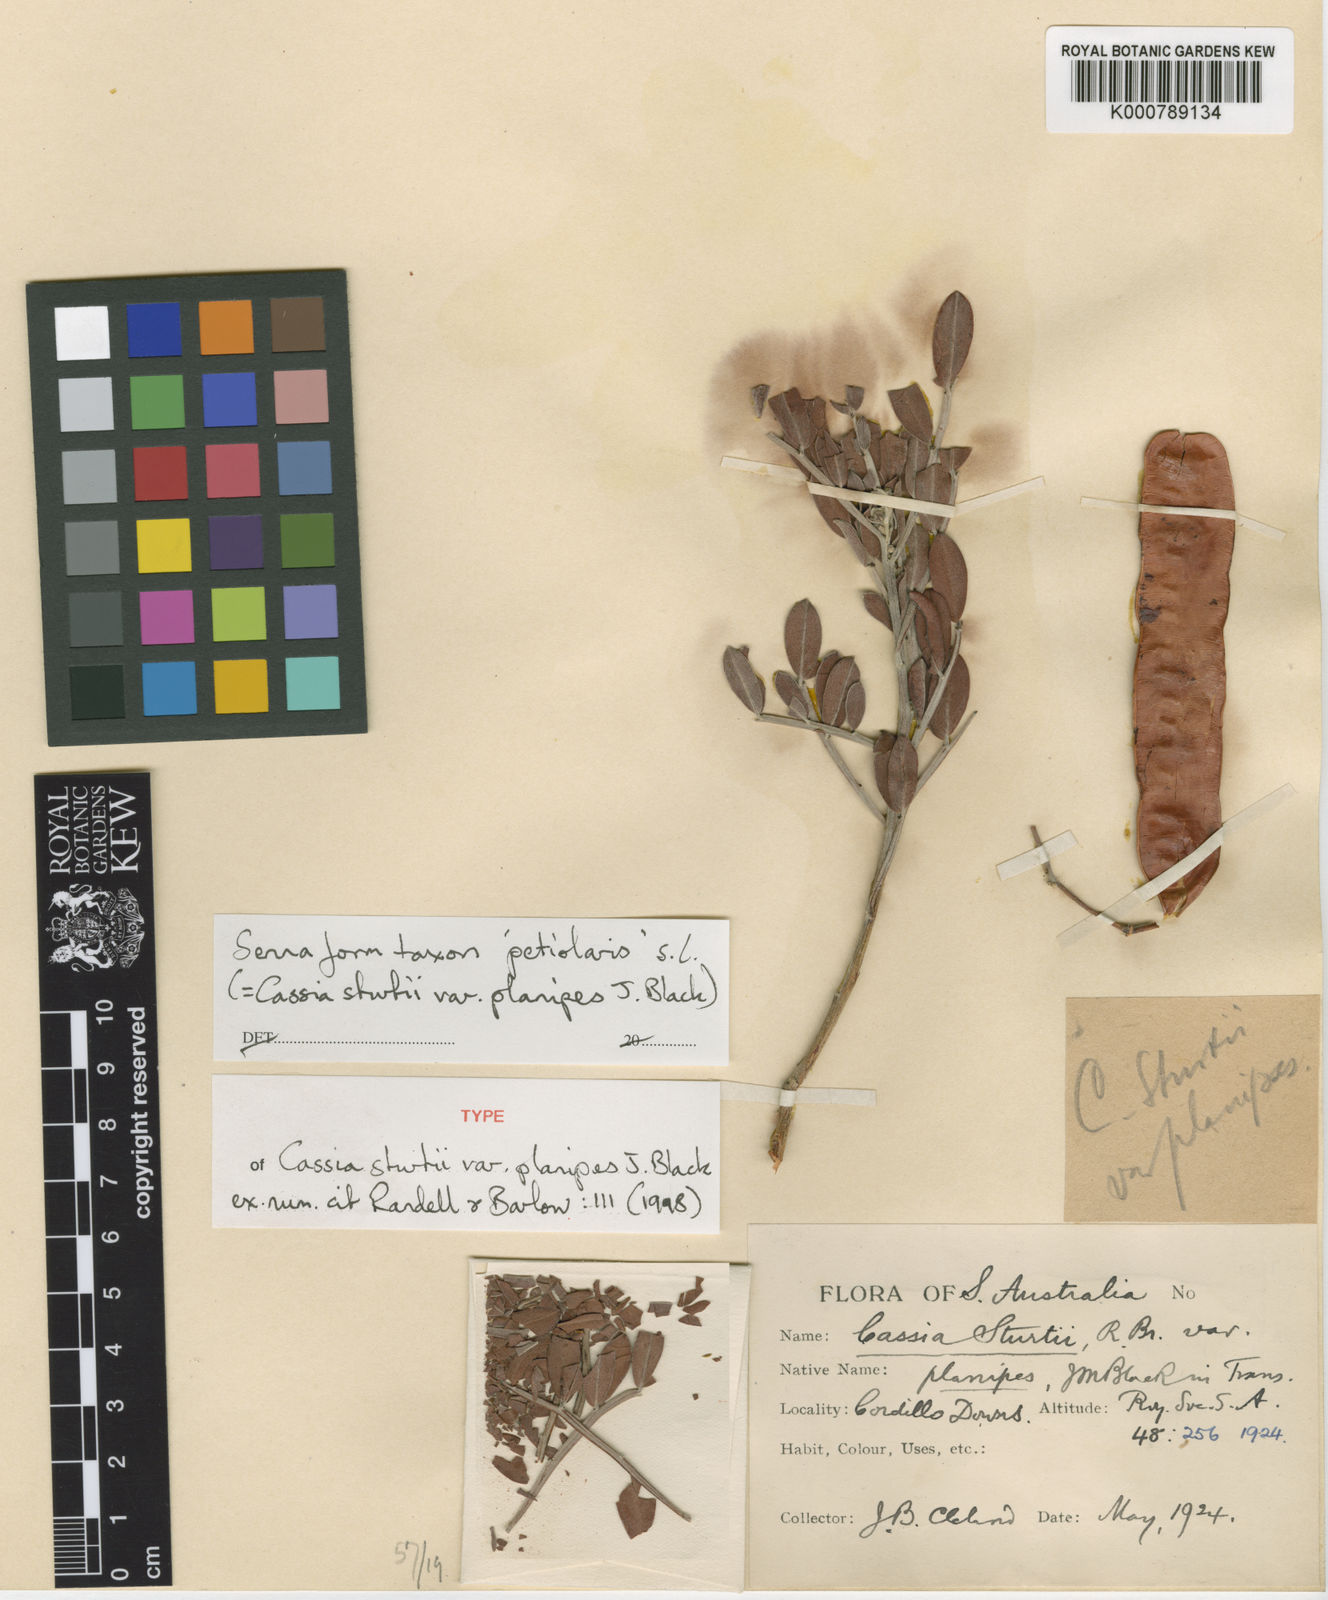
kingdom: Plantae
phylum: Tracheophyta
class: Magnoliopsida
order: Fabales
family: Fabaceae
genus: Senna
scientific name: Senna
